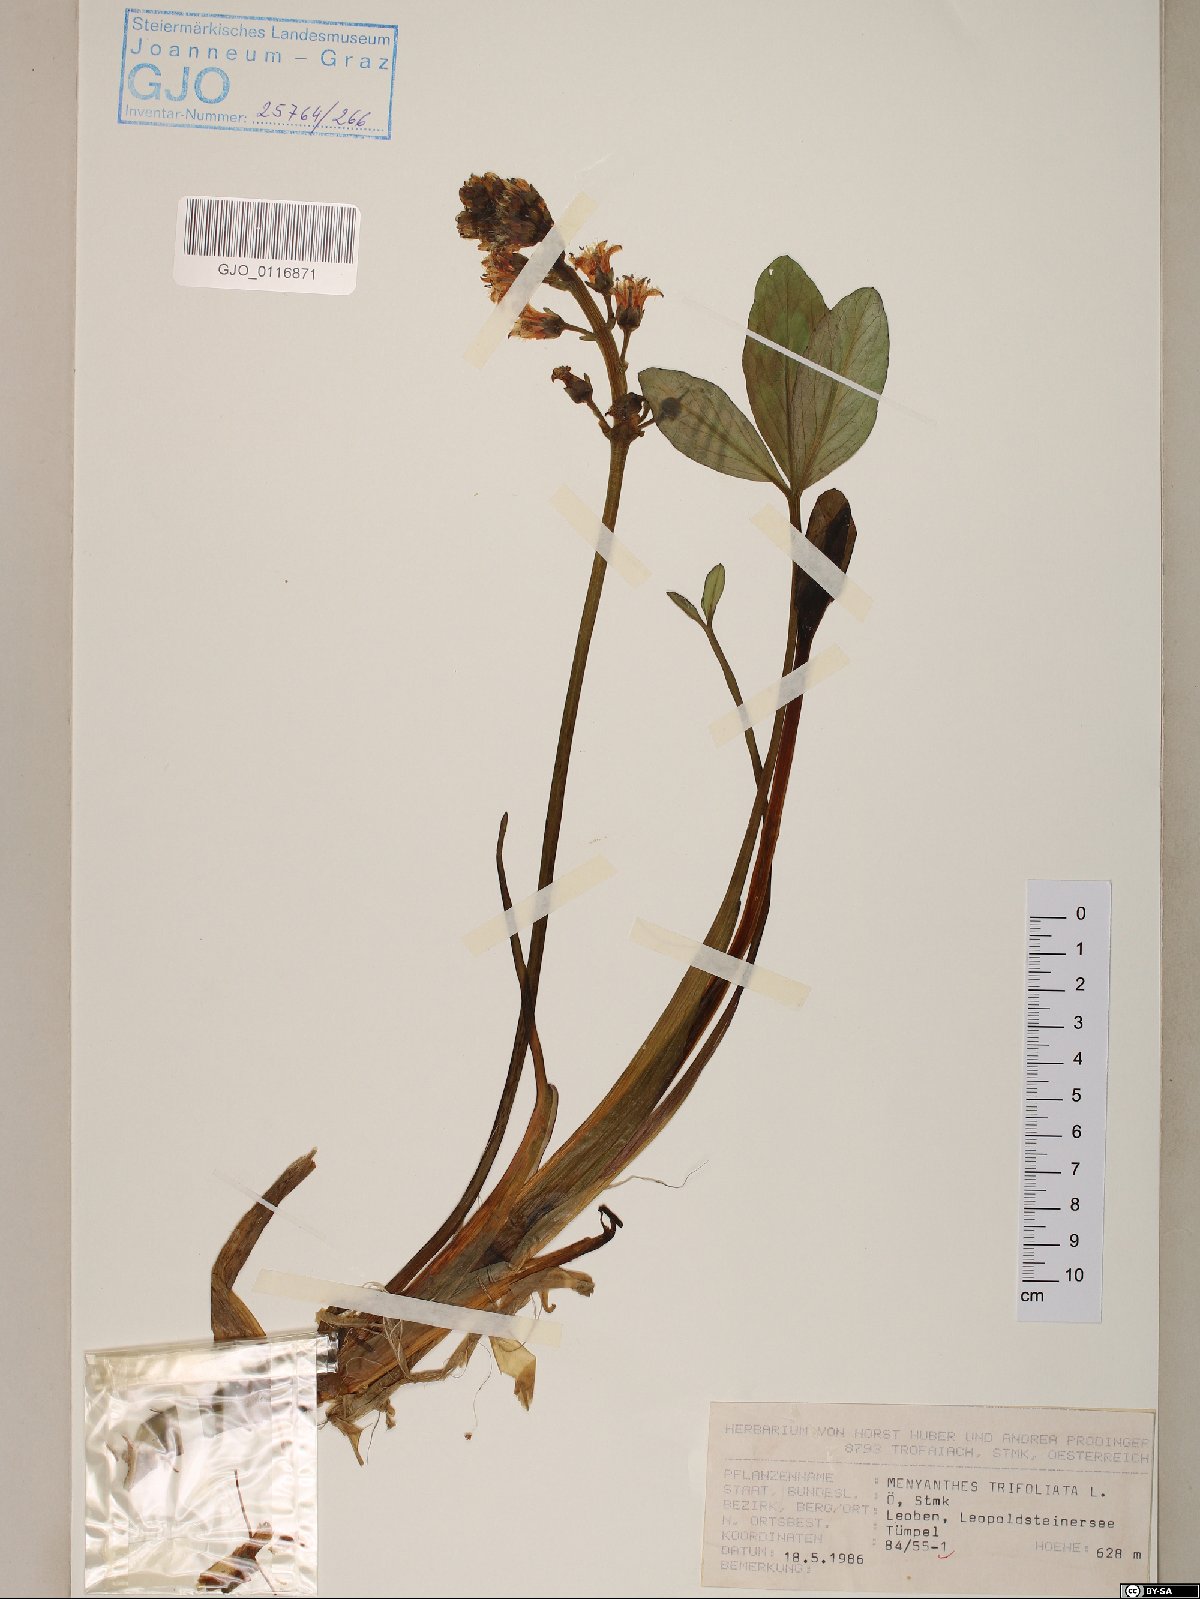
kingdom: Plantae
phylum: Tracheophyta
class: Magnoliopsida
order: Asterales
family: Menyanthaceae
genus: Menyanthes
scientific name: Menyanthes trifoliata
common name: Bogbean
